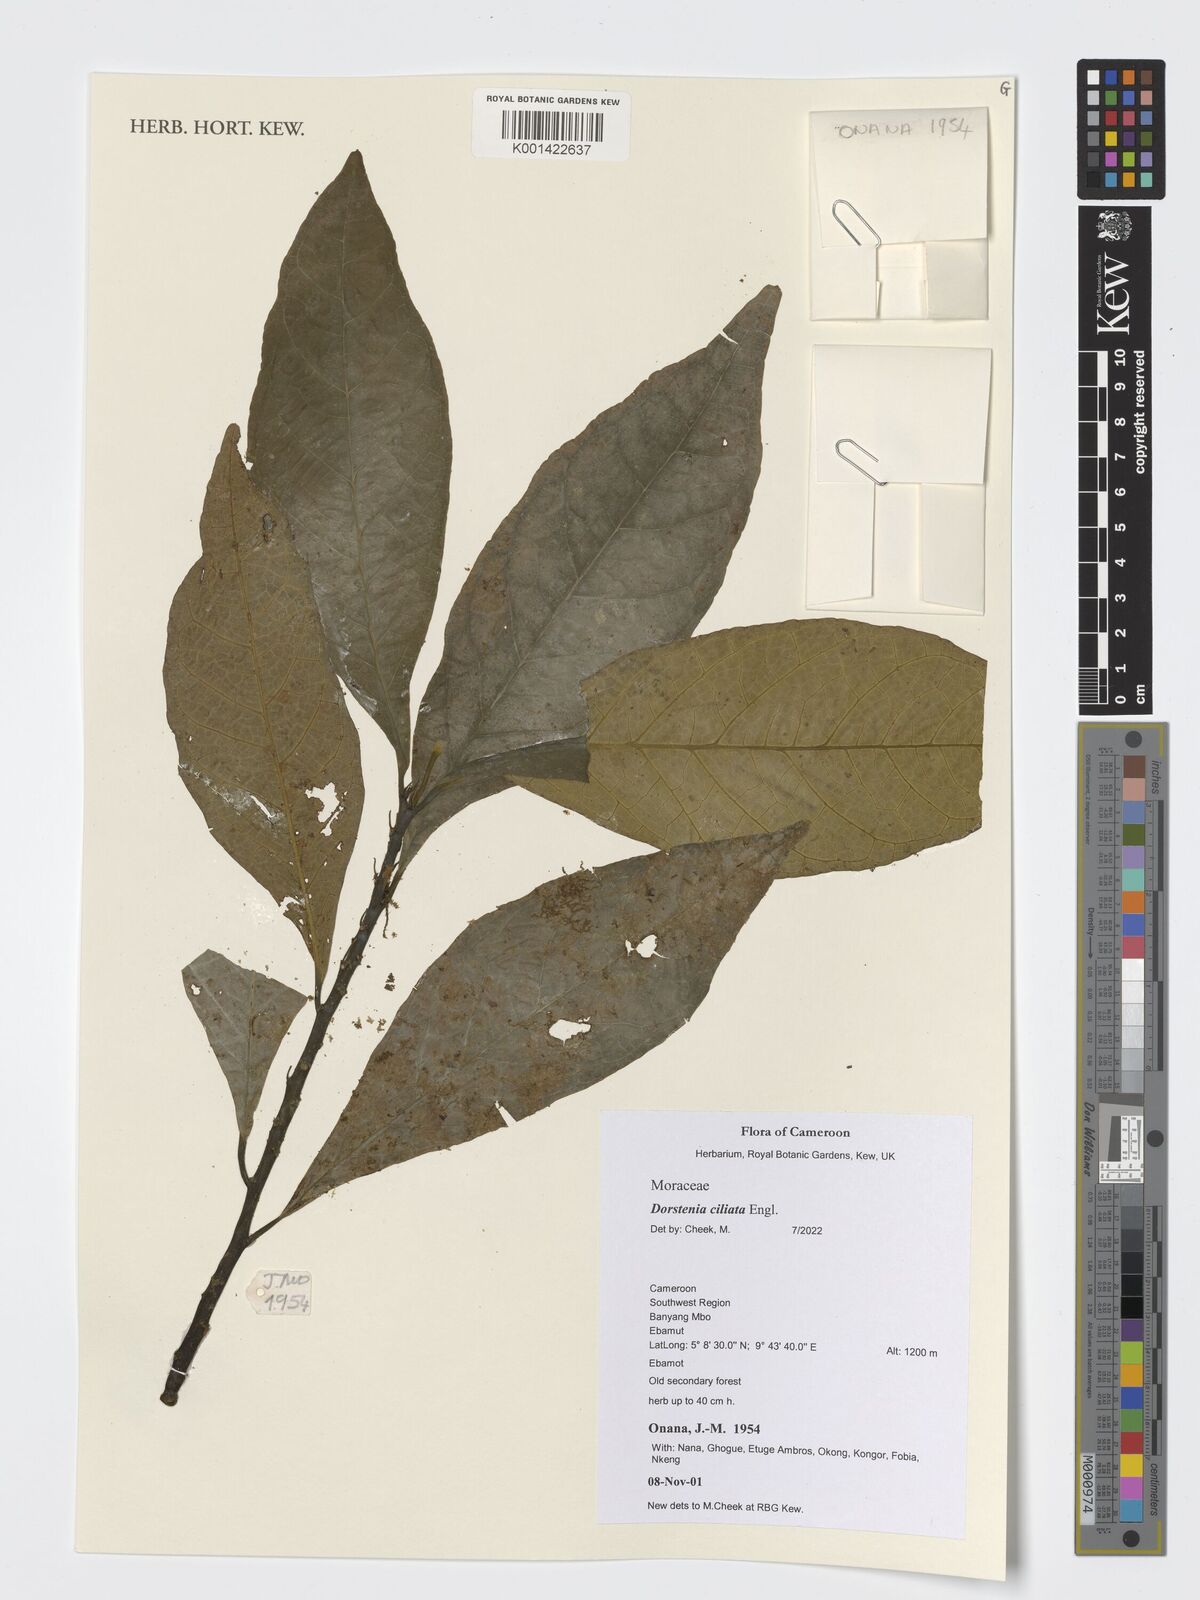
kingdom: Plantae
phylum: Tracheophyta
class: Magnoliopsida
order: Rosales
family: Moraceae
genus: Dorstenia
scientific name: Dorstenia ciliata
